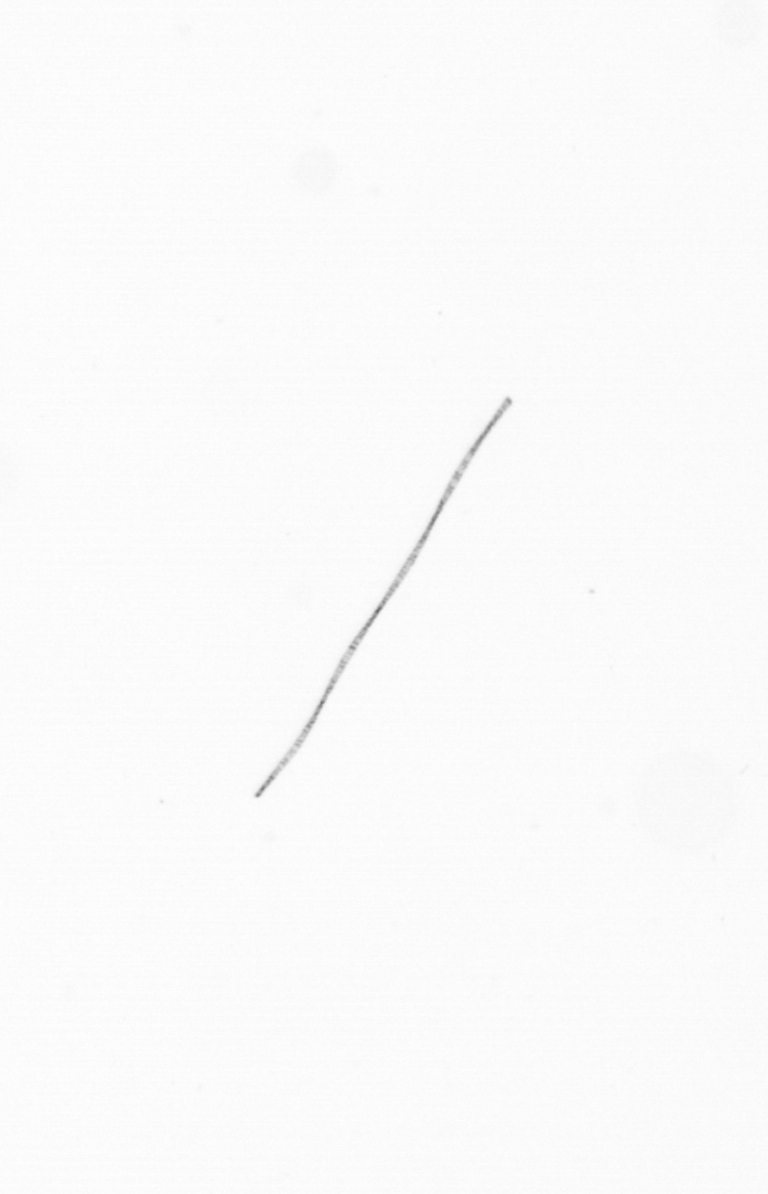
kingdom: Chromista
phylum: Ochrophyta
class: Bacillariophyceae
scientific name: Bacillariophyceae
